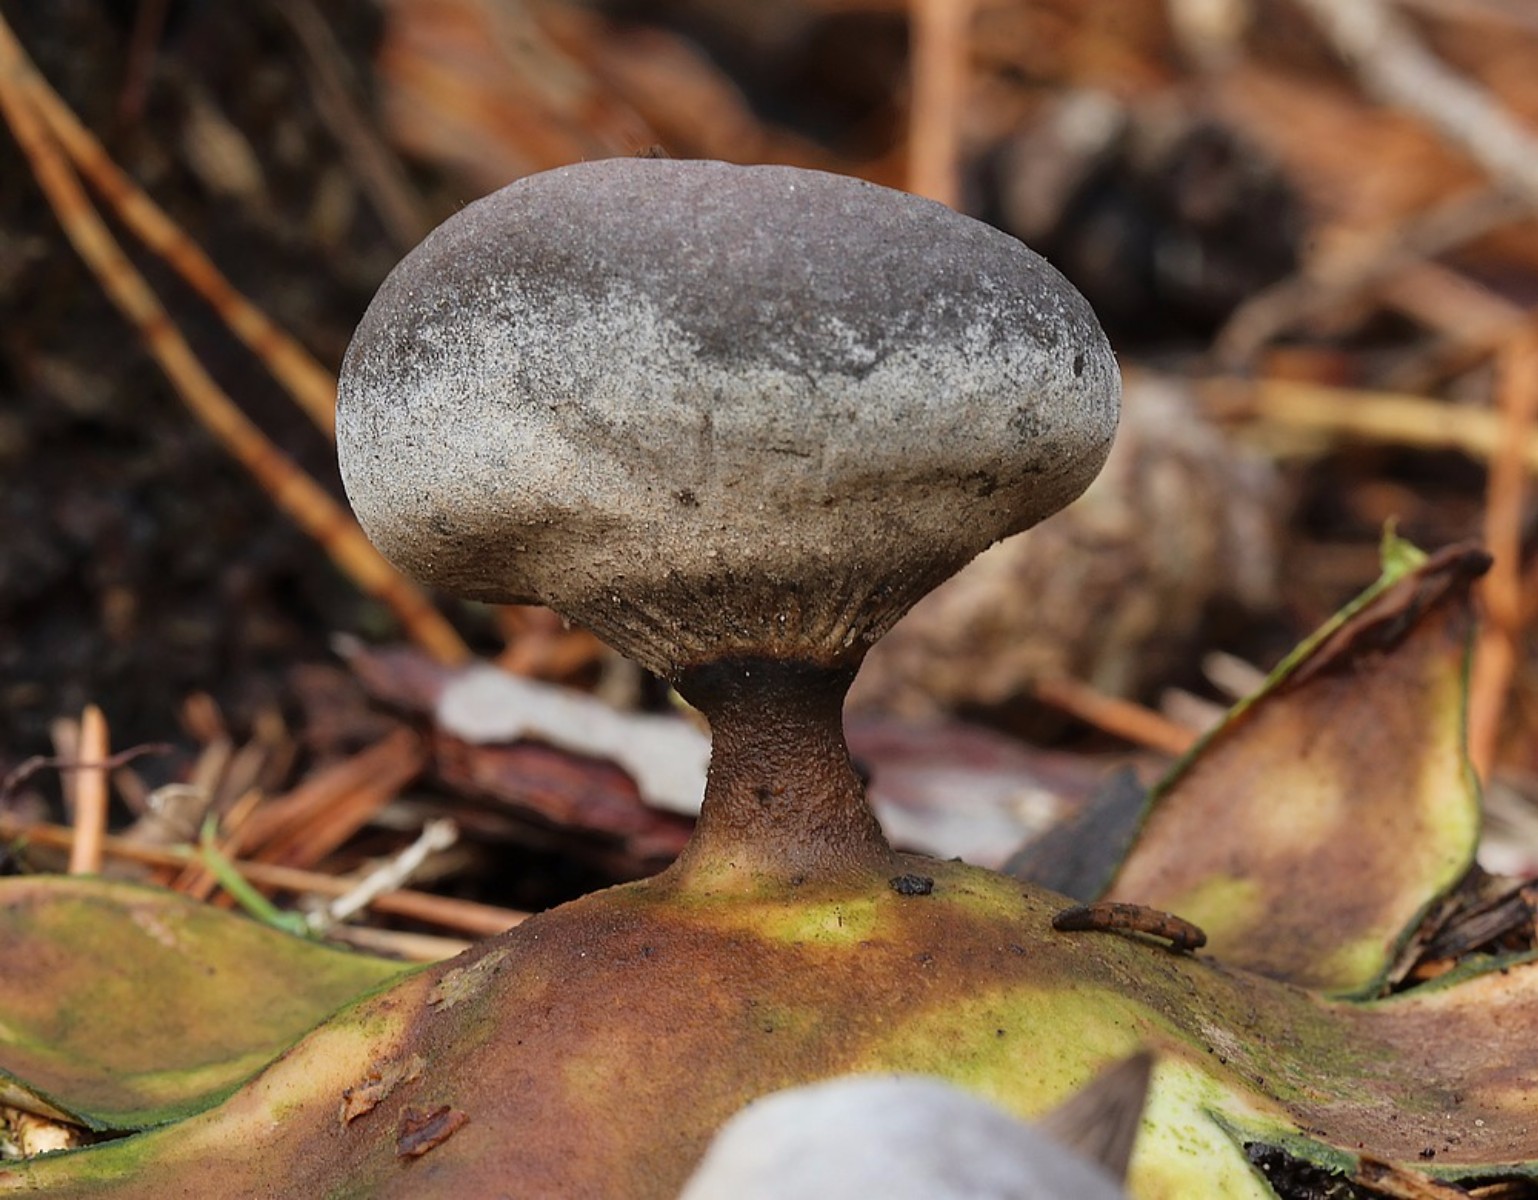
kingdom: Fungi
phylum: Basidiomycota
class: Agaricomycetes
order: Geastrales
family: Geastraceae
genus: Geastrum
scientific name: Geastrum pectinatum
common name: stilket stjernebold
